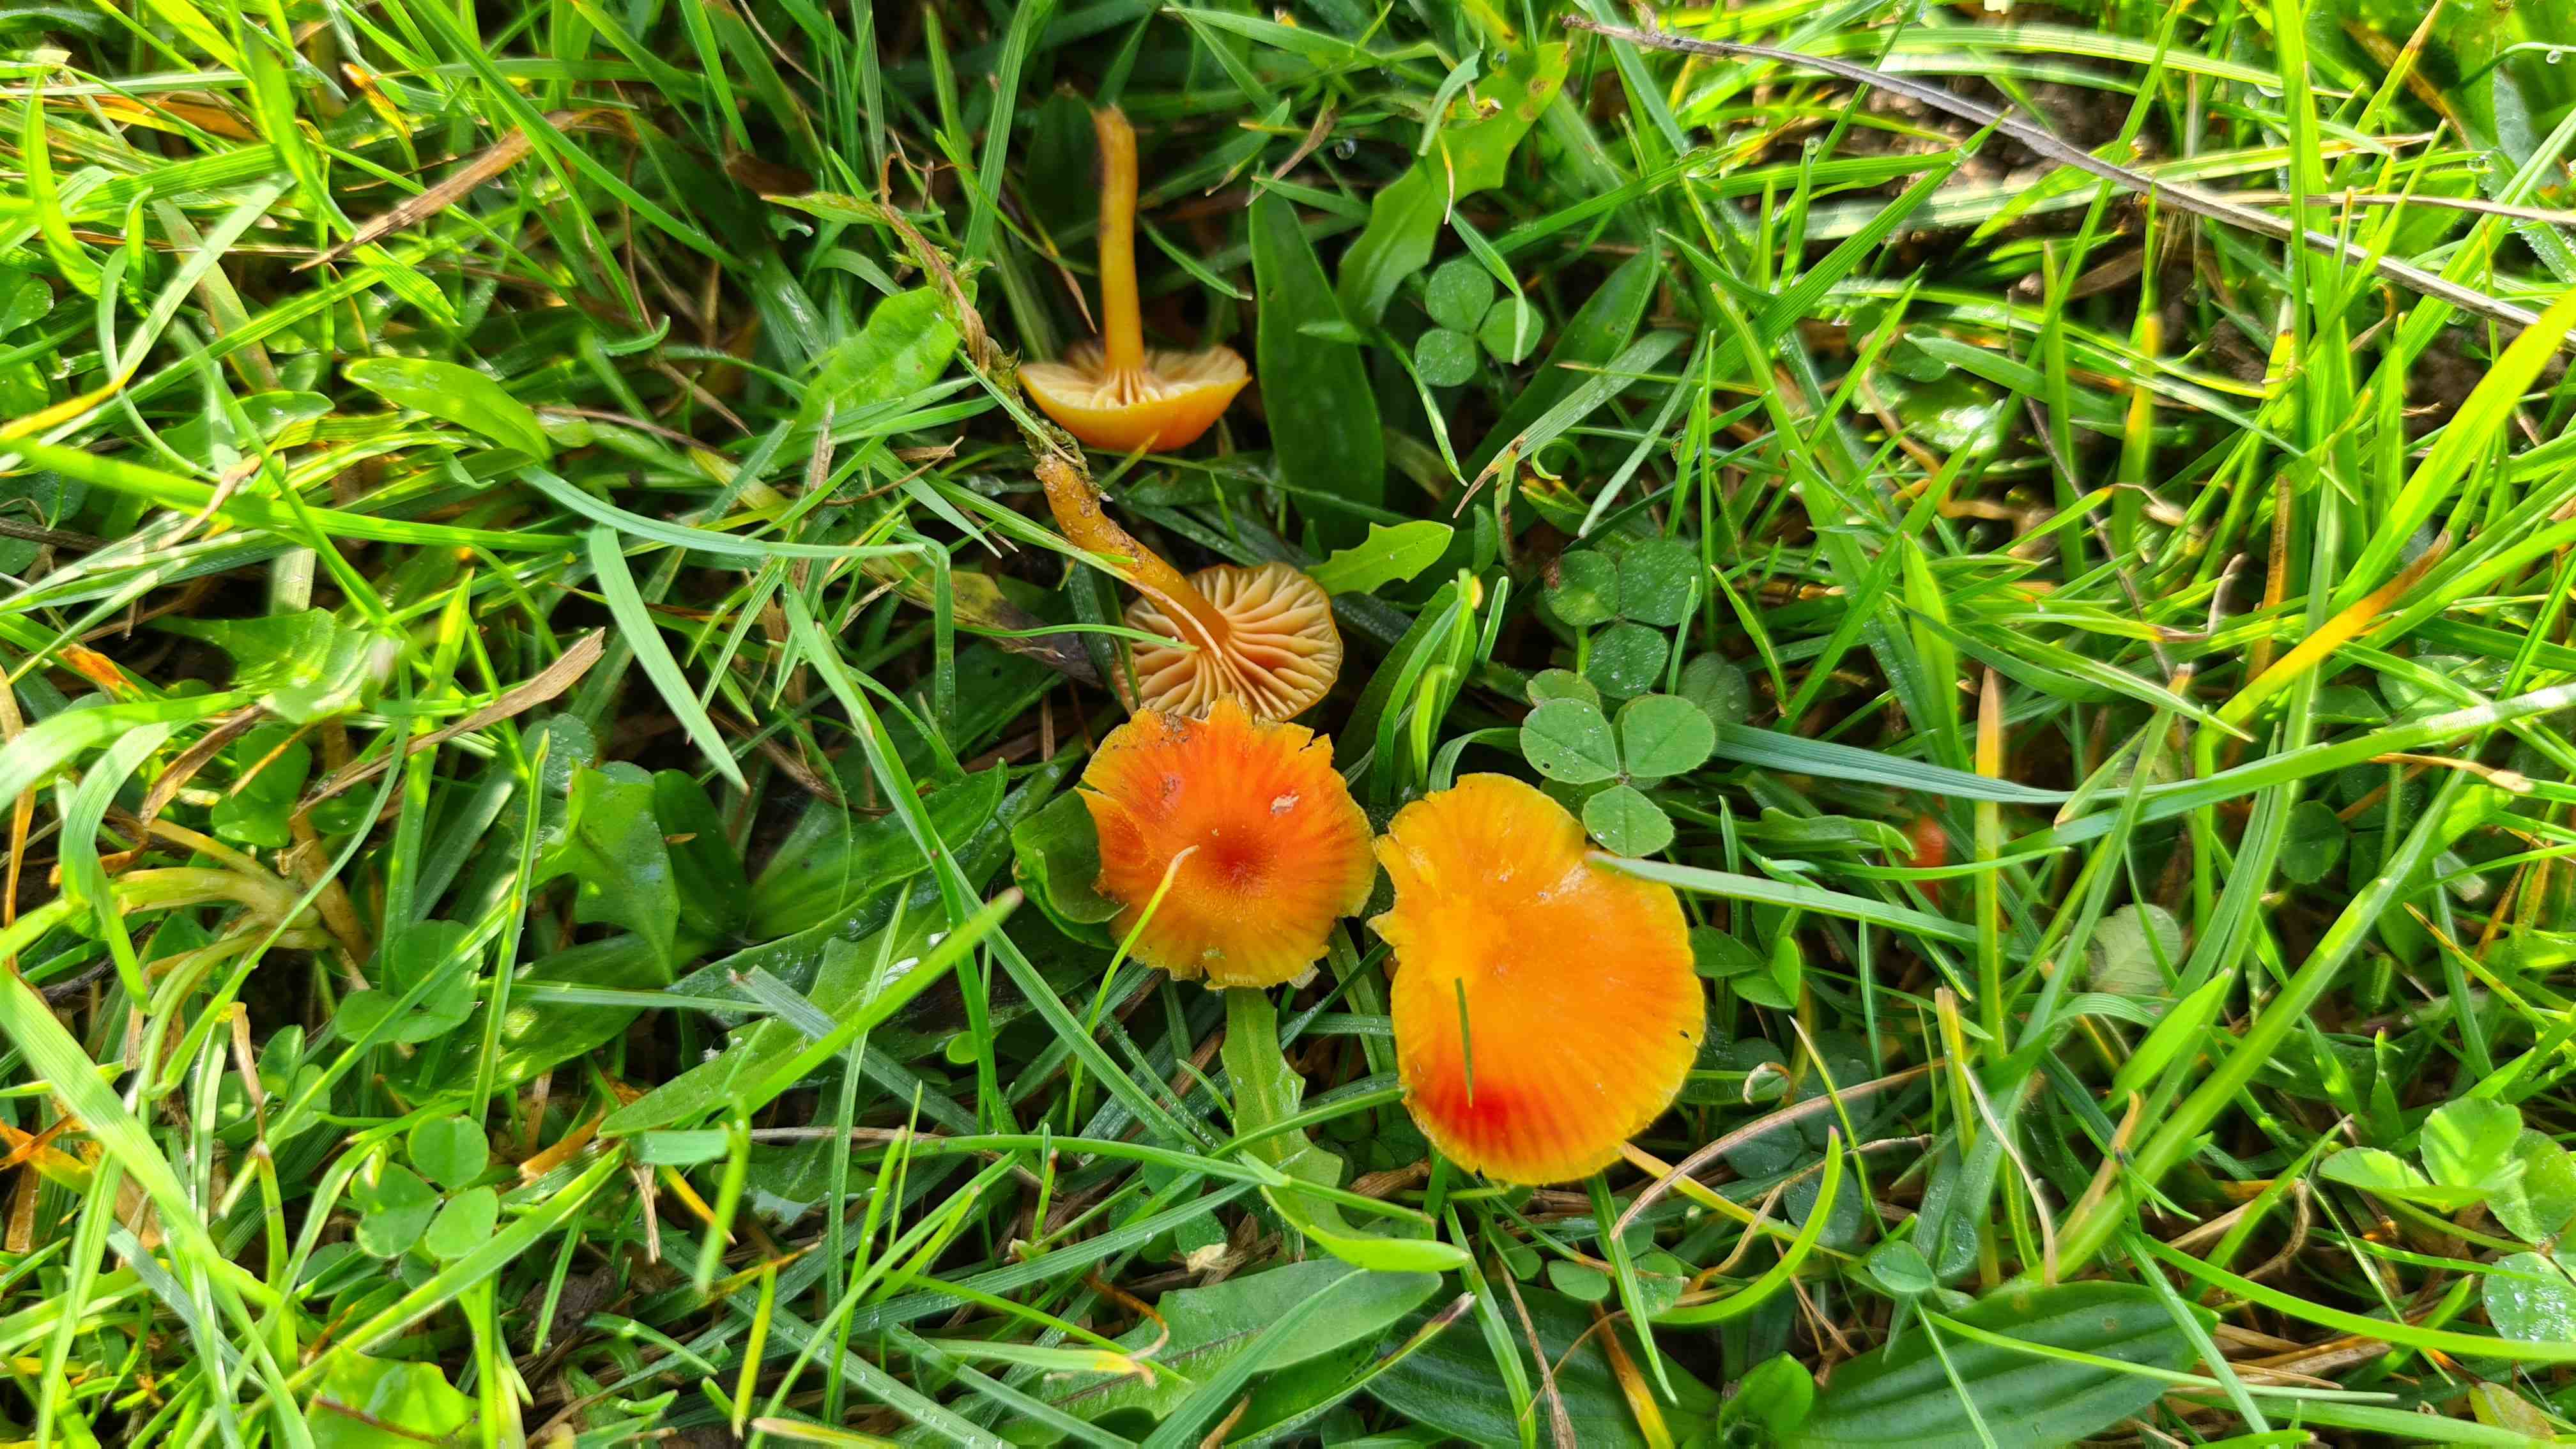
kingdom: Fungi
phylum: Basidiomycota
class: Agaricomycetes
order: Agaricales
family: Hygrophoraceae
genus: Hygrocybe
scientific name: Hygrocybe insipida
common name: liden vokshat
